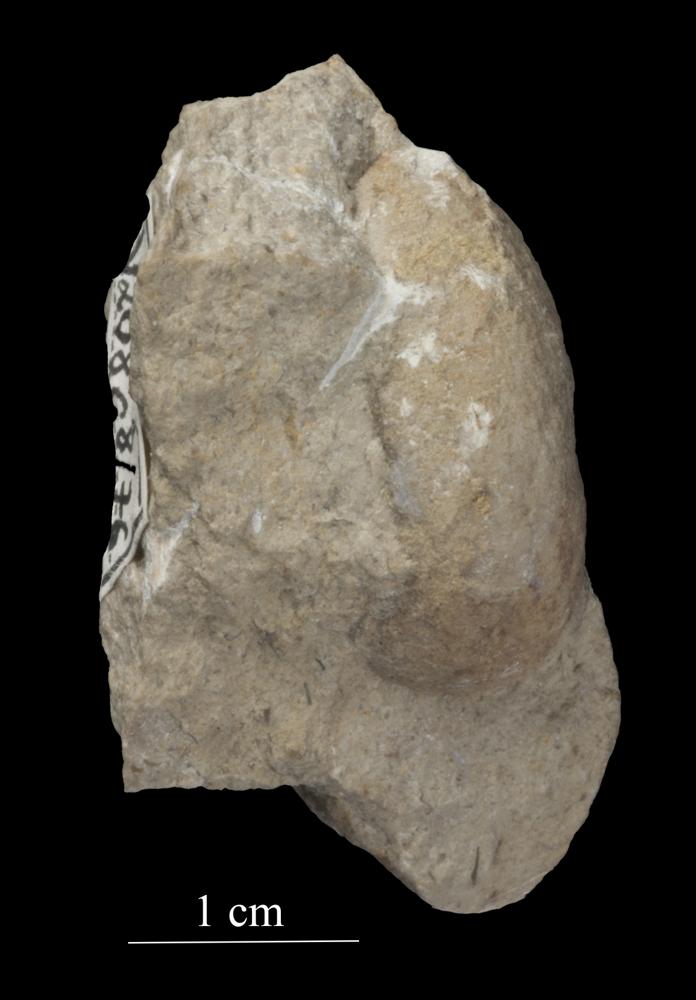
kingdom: Animalia
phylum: Mollusca
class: Gastropoda
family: Bellerophontidae
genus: Bellerophon
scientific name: Bellerophon contortus
